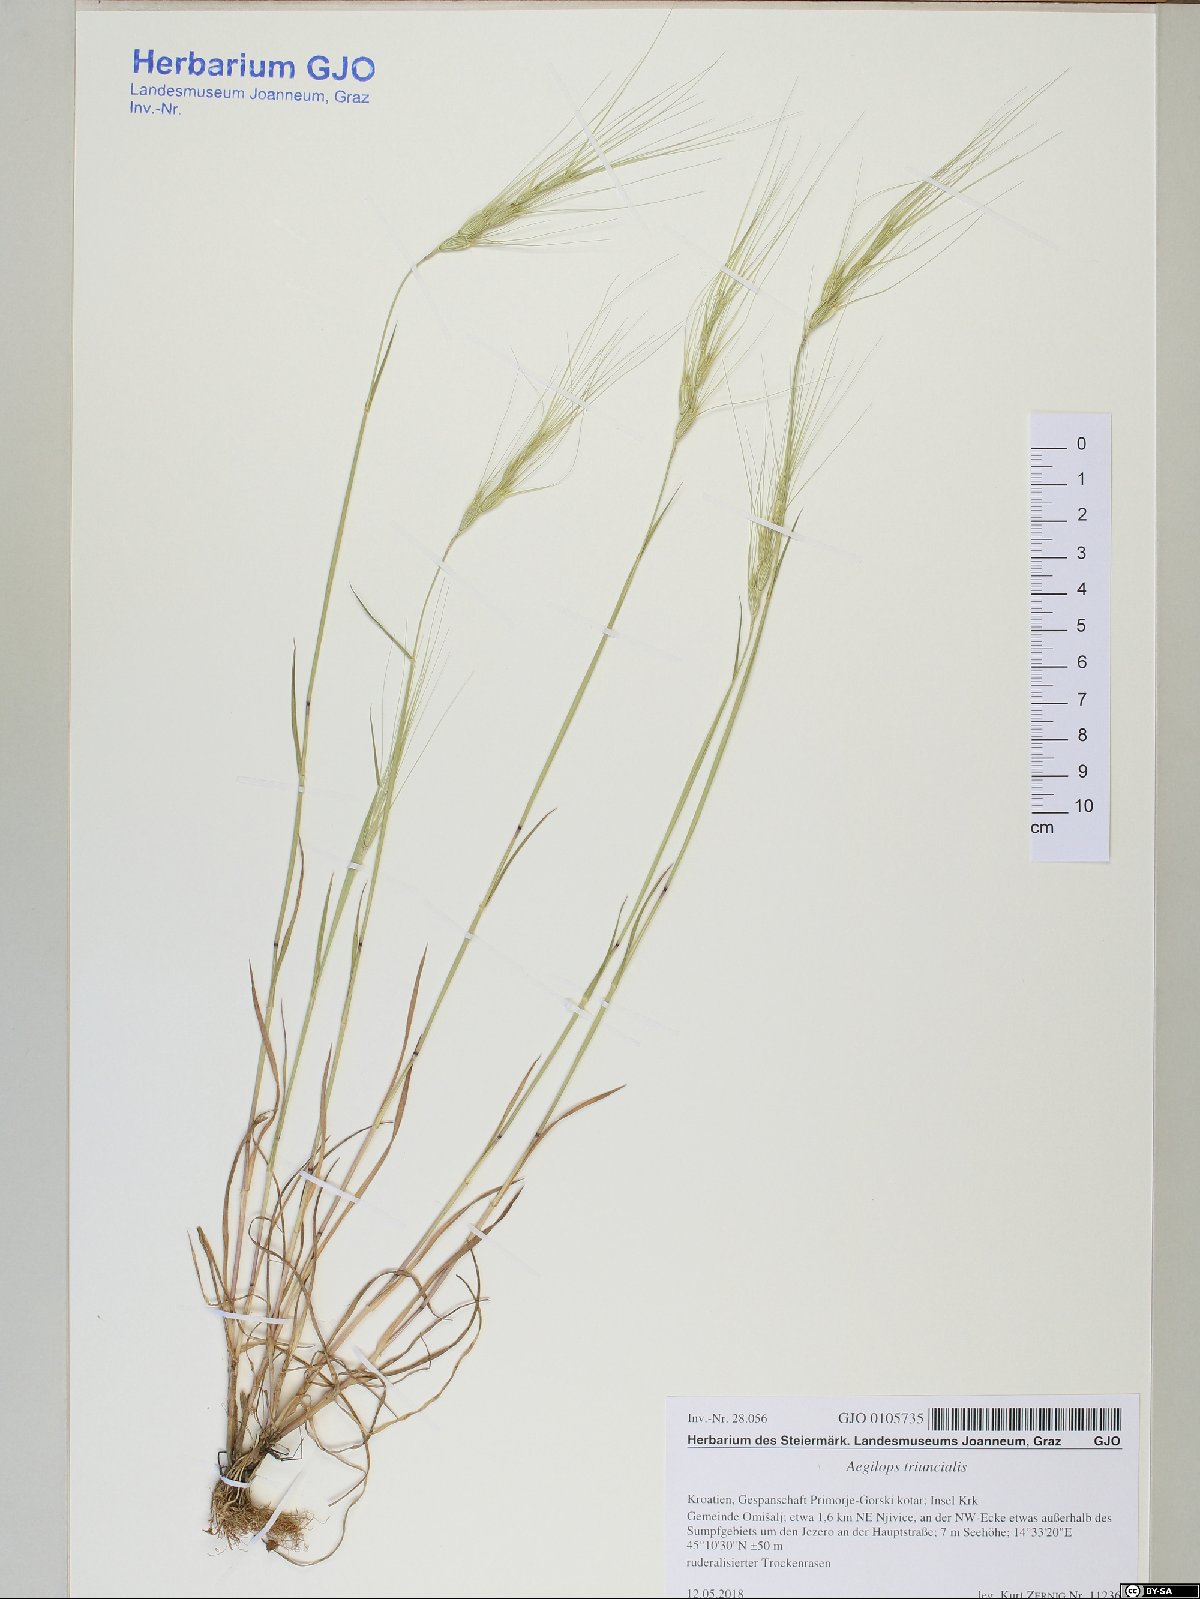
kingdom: Plantae
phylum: Tracheophyta
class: Liliopsida
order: Poales
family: Poaceae
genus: Aegilops
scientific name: Aegilops triuncialis
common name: Barb goat grass
